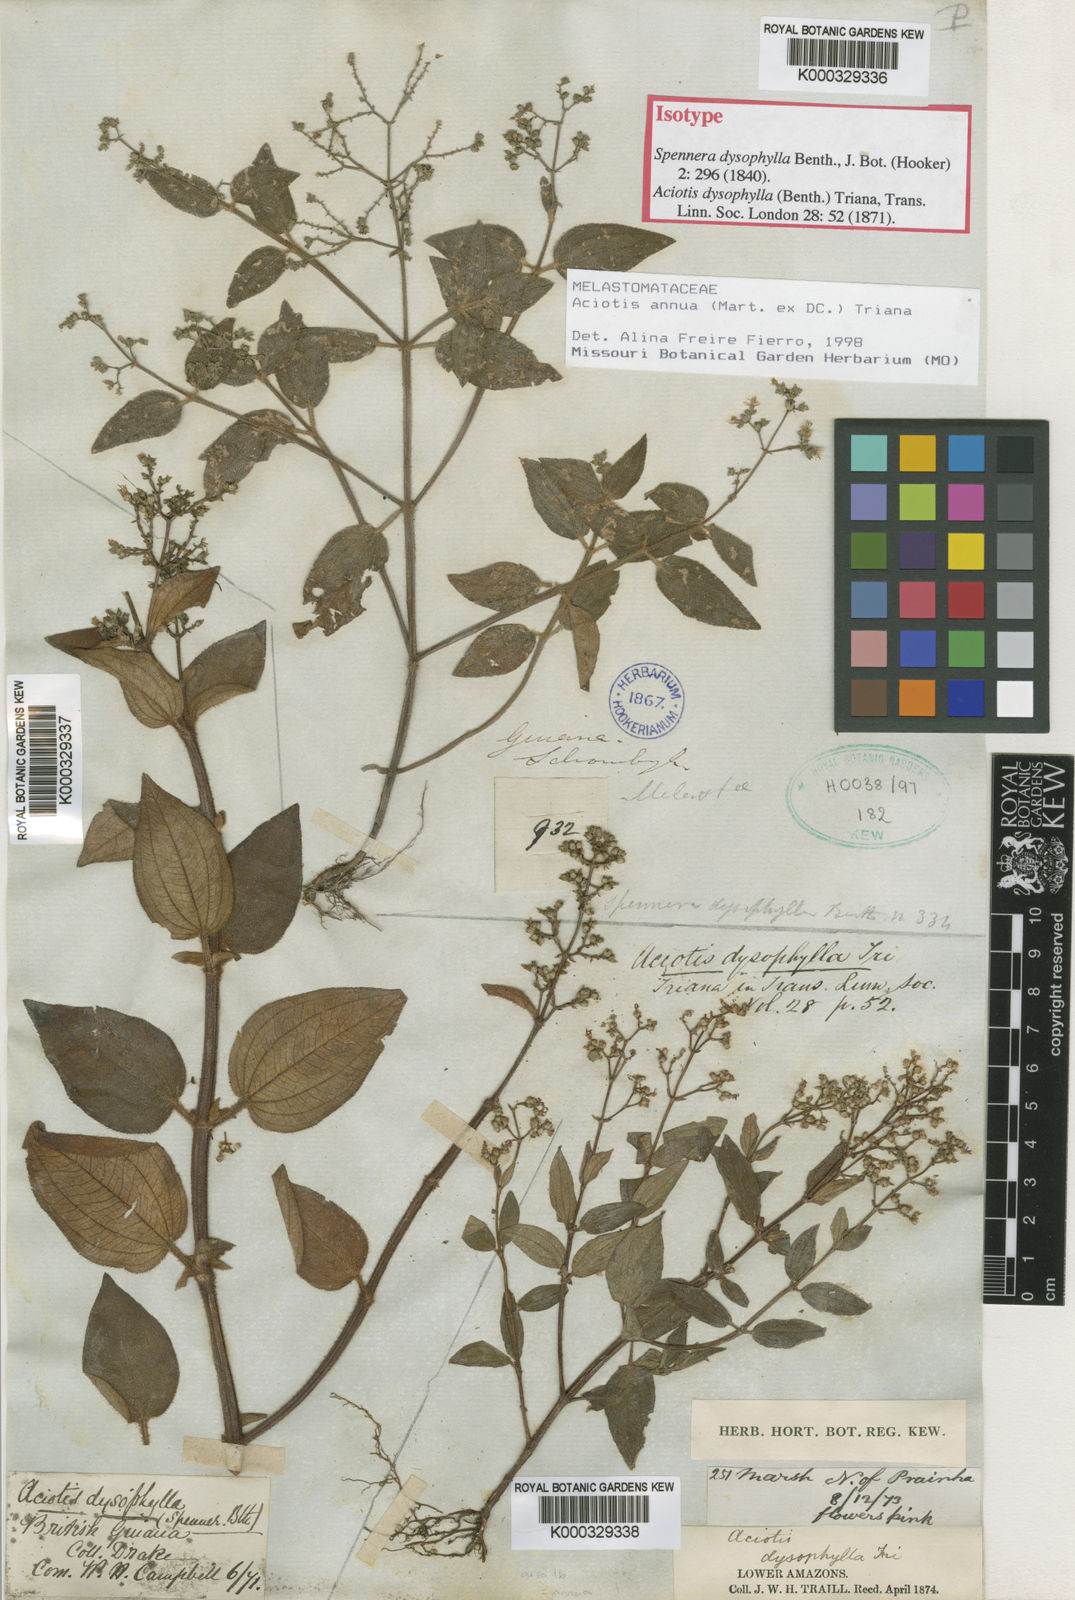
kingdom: Plantae
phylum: Tracheophyta
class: Magnoliopsida
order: Myrtales
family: Melastomataceae
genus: Aciotis
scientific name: Aciotis annua
